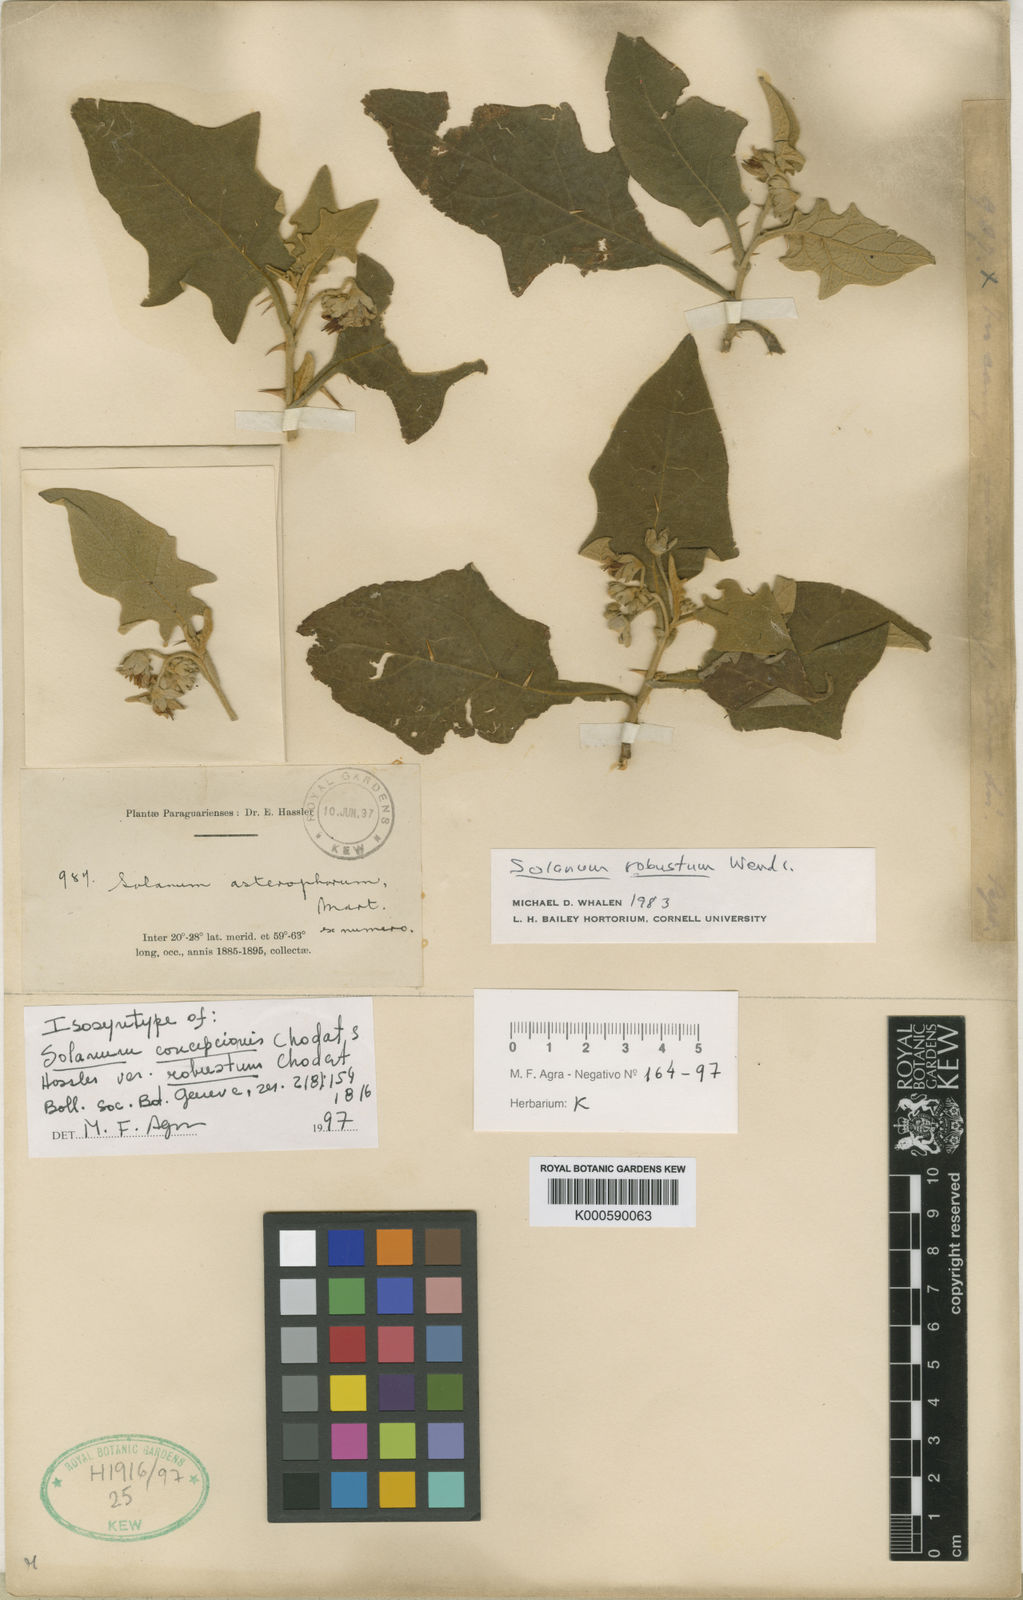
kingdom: Plantae
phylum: Tracheophyta
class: Magnoliopsida
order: Solanales
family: Solanaceae
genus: Solanum
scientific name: Solanum robustum
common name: Shrubby nightshade
